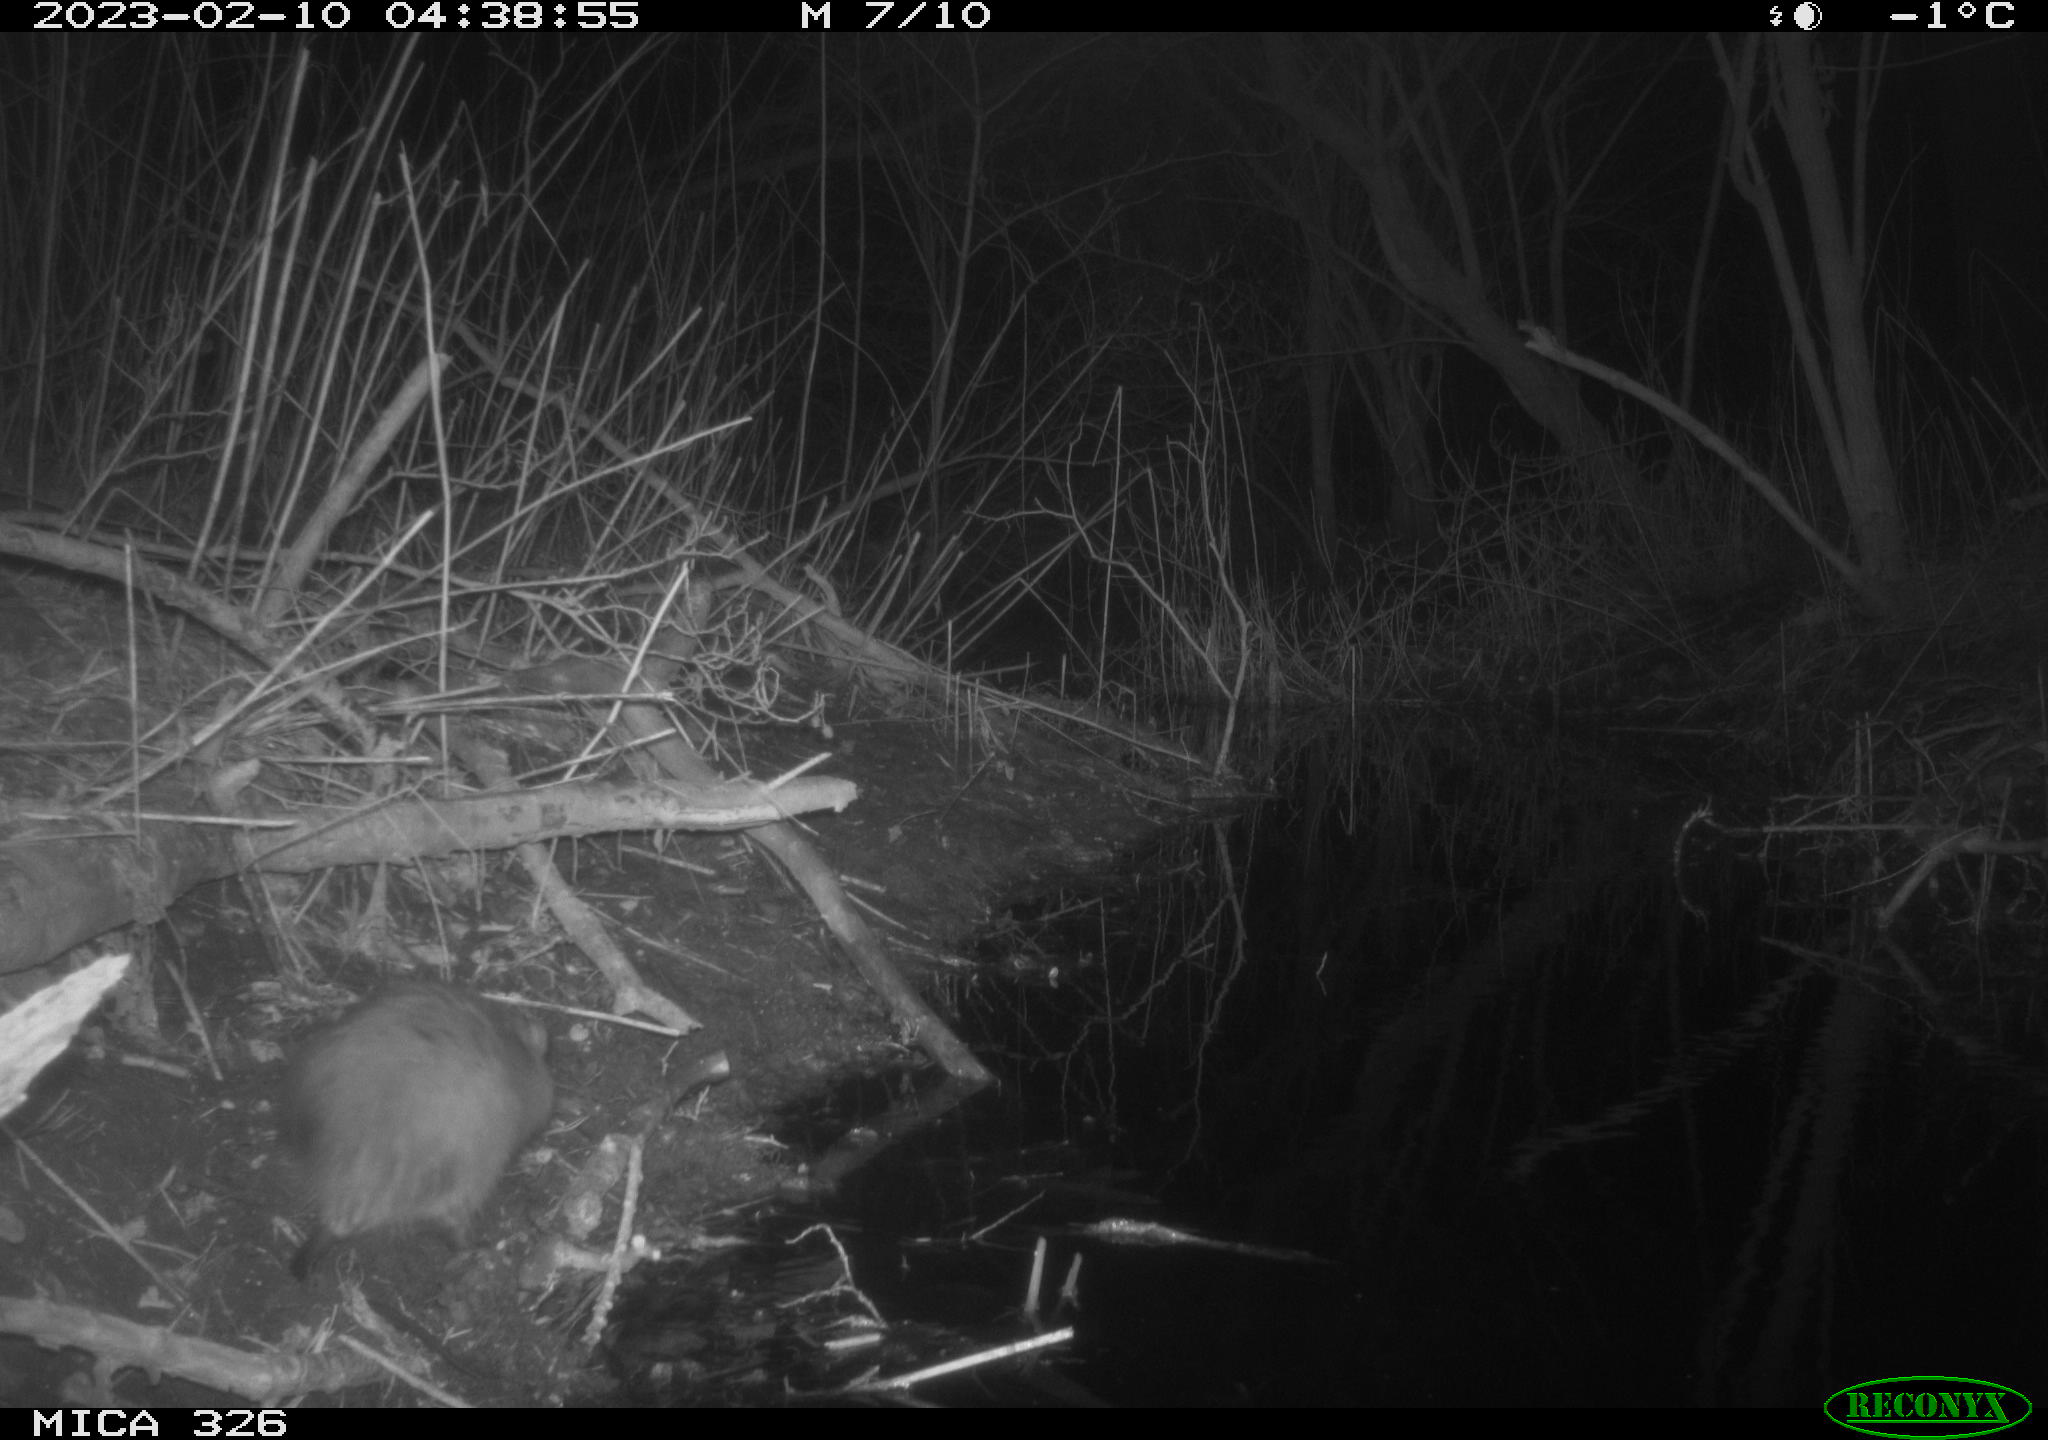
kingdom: Animalia
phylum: Chordata
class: Mammalia
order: Rodentia
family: Cricetidae
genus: Ondatra
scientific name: Ondatra zibethicus
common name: Muskrat
